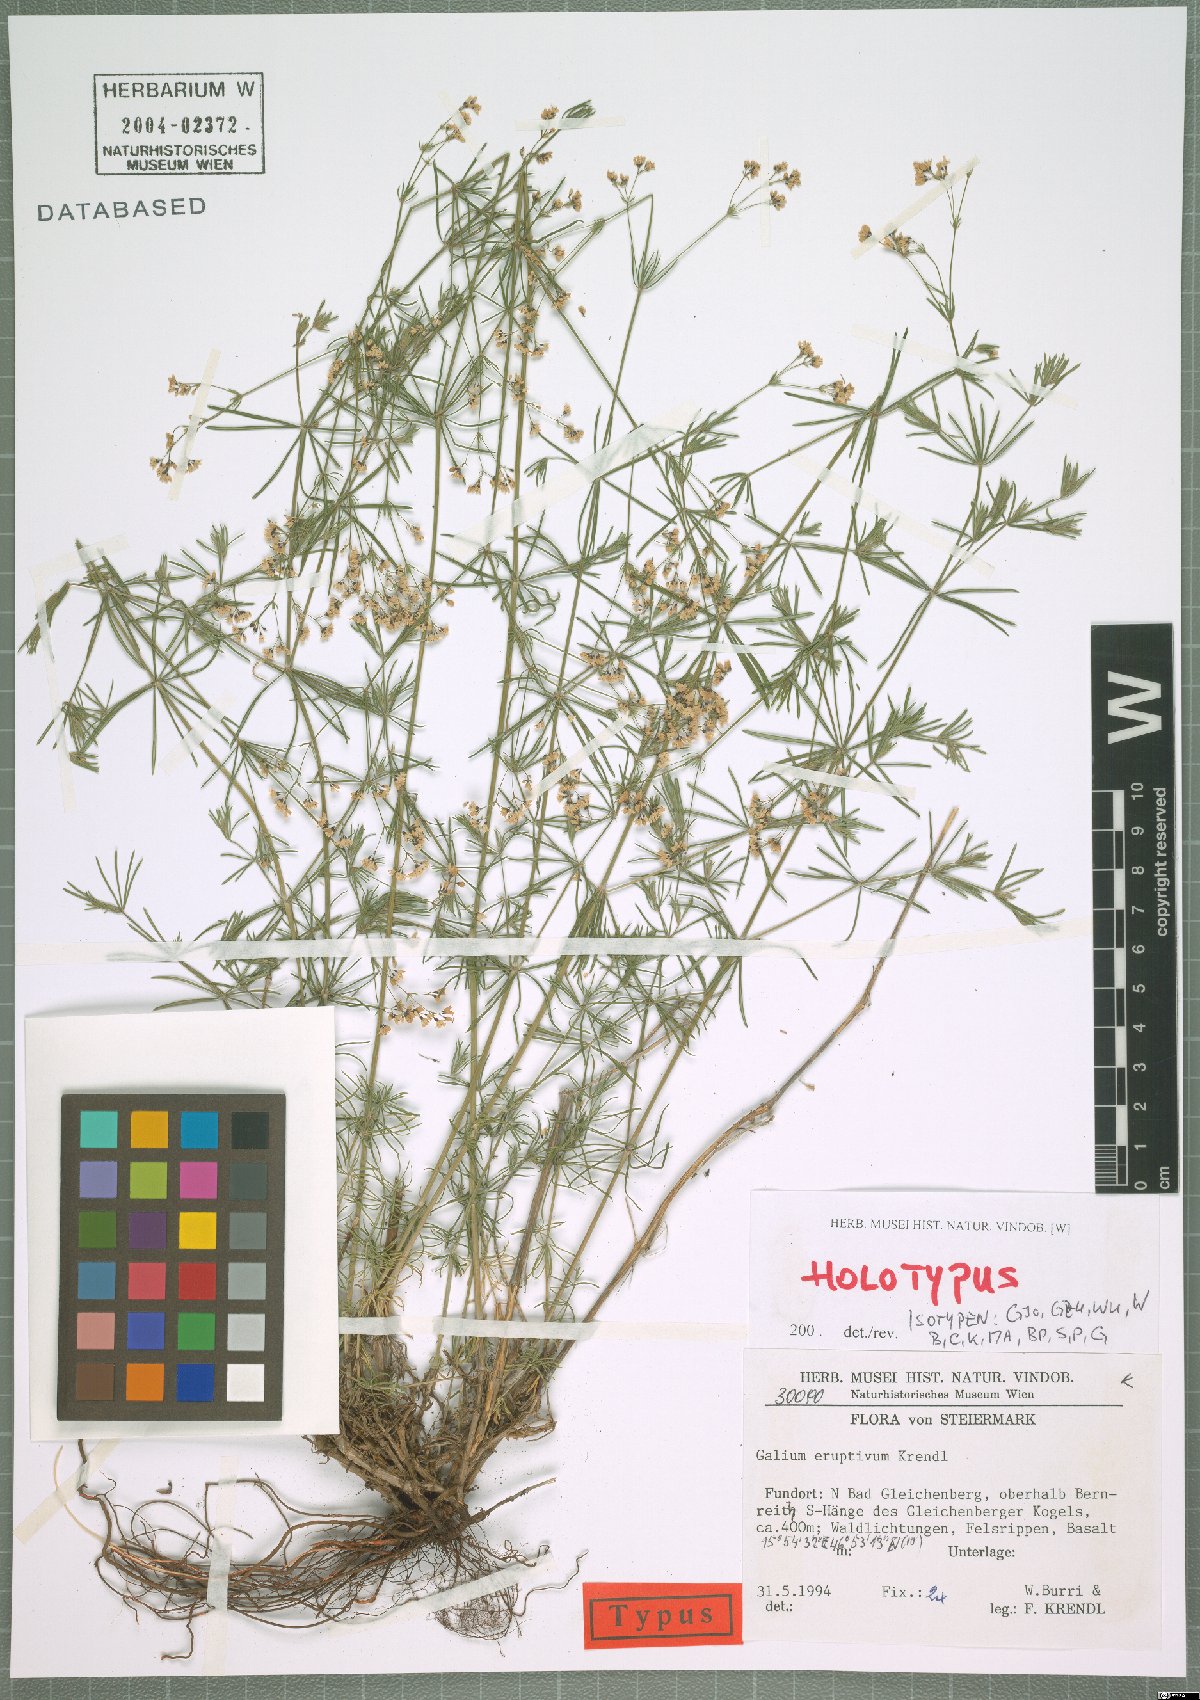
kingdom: Plantae
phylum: Tracheophyta
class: Magnoliopsida
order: Gentianales
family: Rubiaceae
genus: Galium
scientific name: Galium eruptivum
